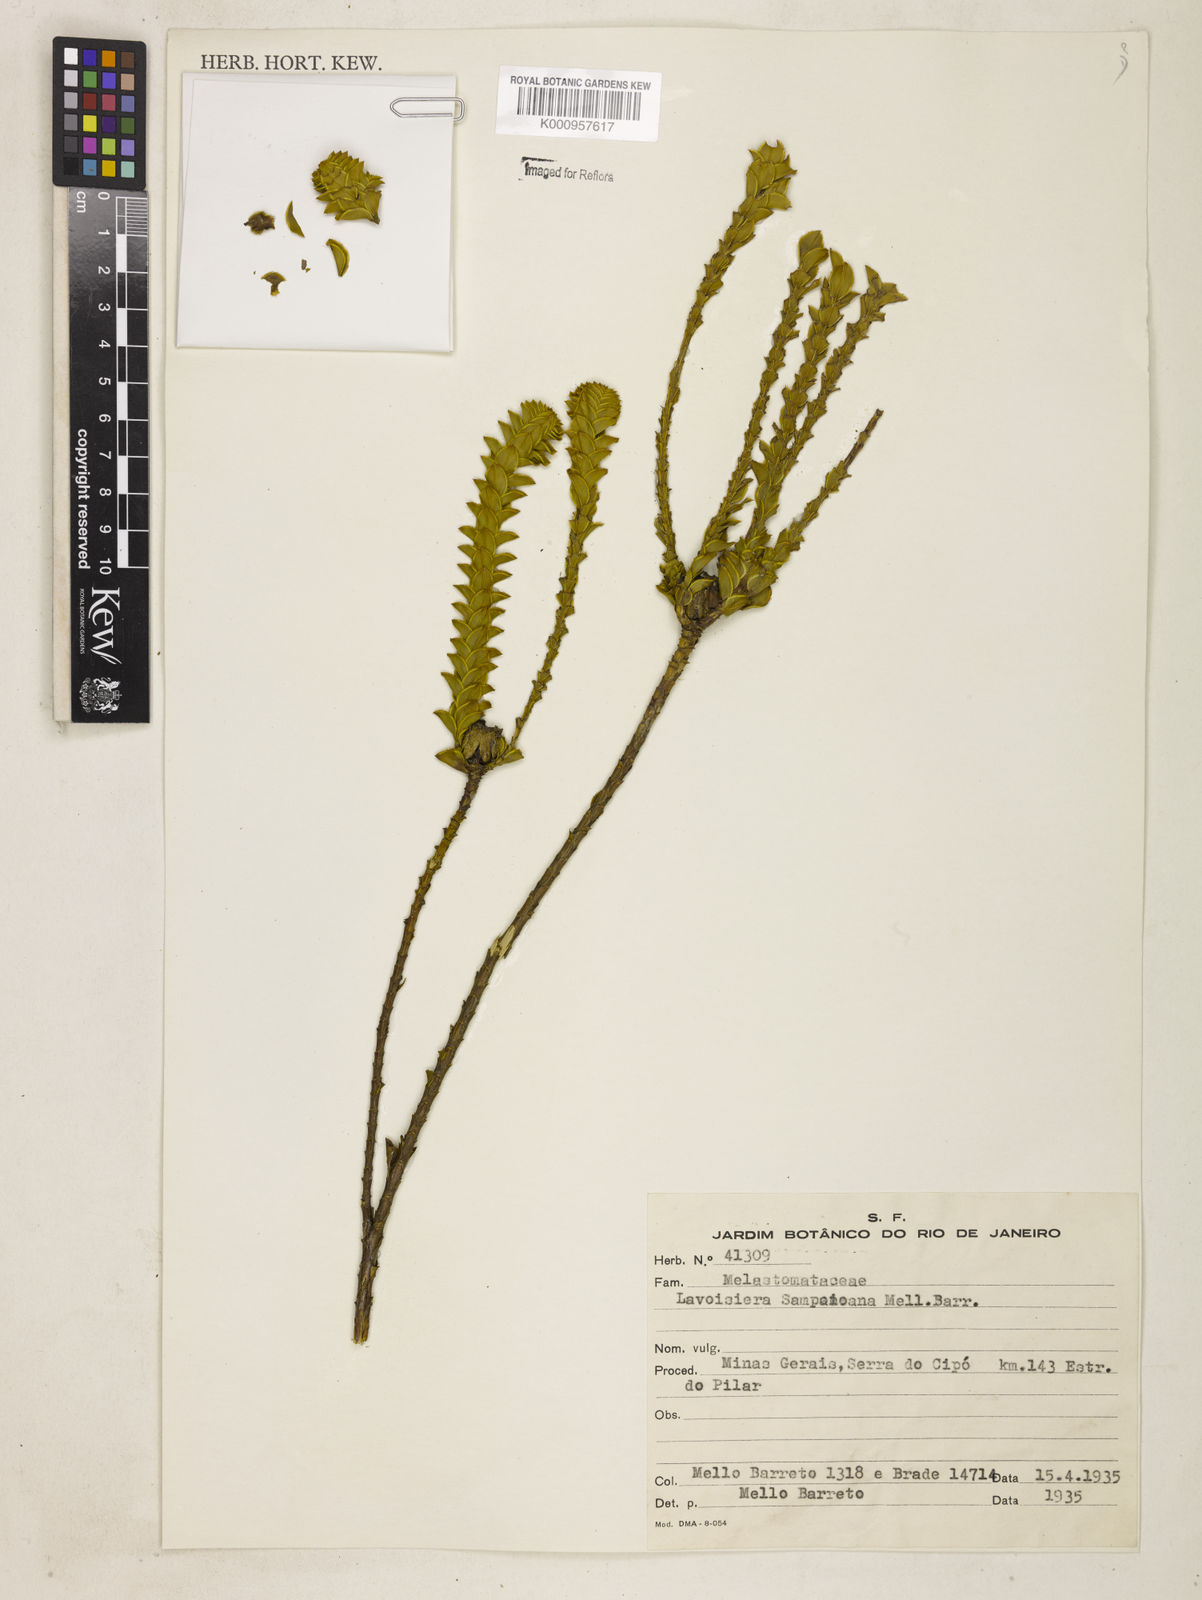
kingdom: Plantae
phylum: Tracheophyta
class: Magnoliopsida
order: Myrtales
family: Melastomataceae
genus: Microlicia
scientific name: Microlicia
